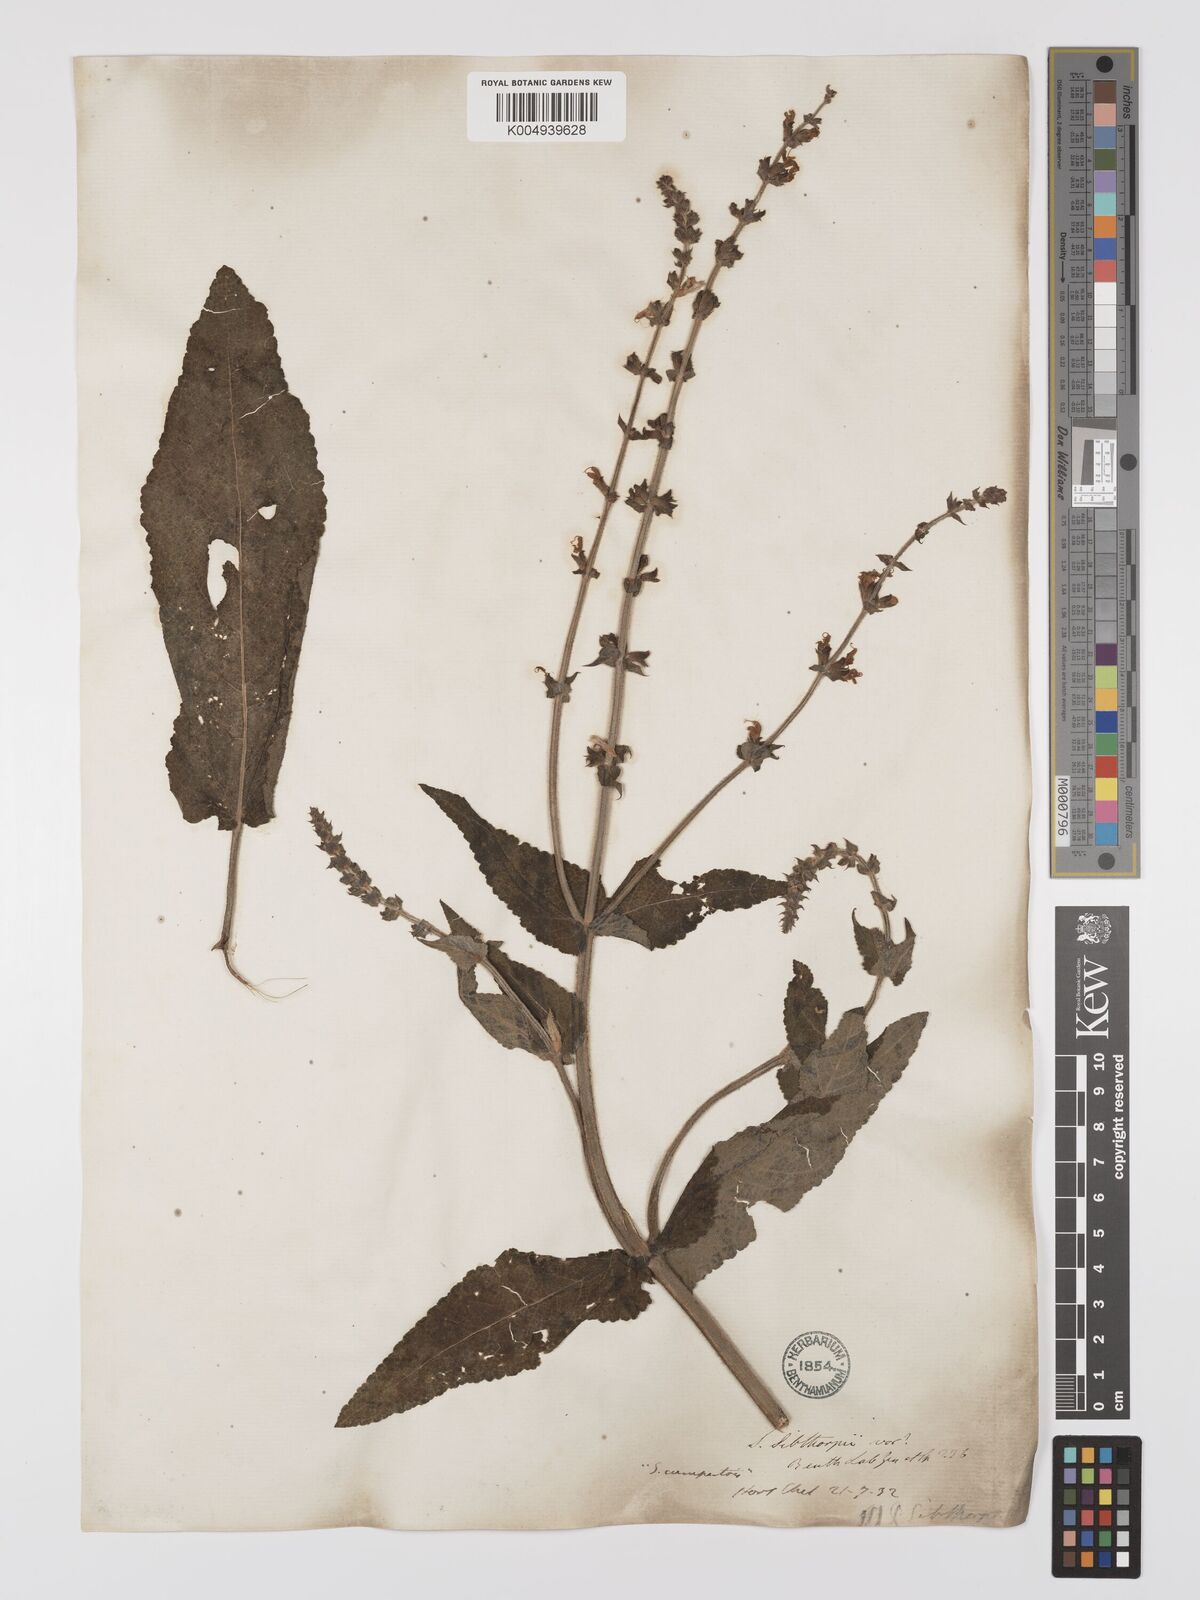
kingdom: Plantae
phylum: Tracheophyta
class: Magnoliopsida
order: Lamiales
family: Lamiaceae
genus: Salvia
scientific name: Salvia
